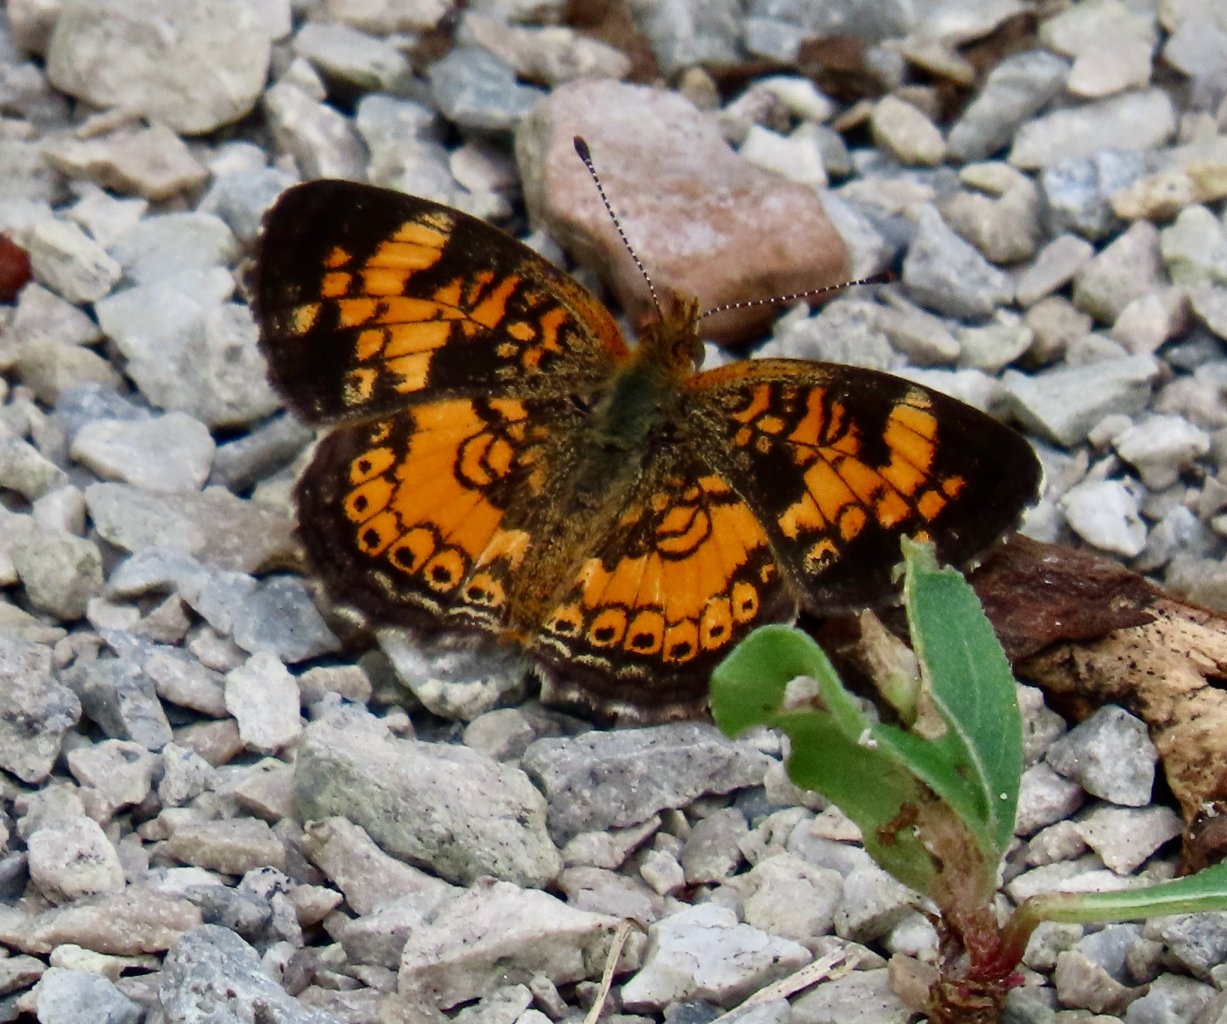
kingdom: Animalia
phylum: Arthropoda
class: Insecta
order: Lepidoptera
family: Nymphalidae
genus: Phyciodes
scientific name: Phyciodes tharos
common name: Pearl Crescent
